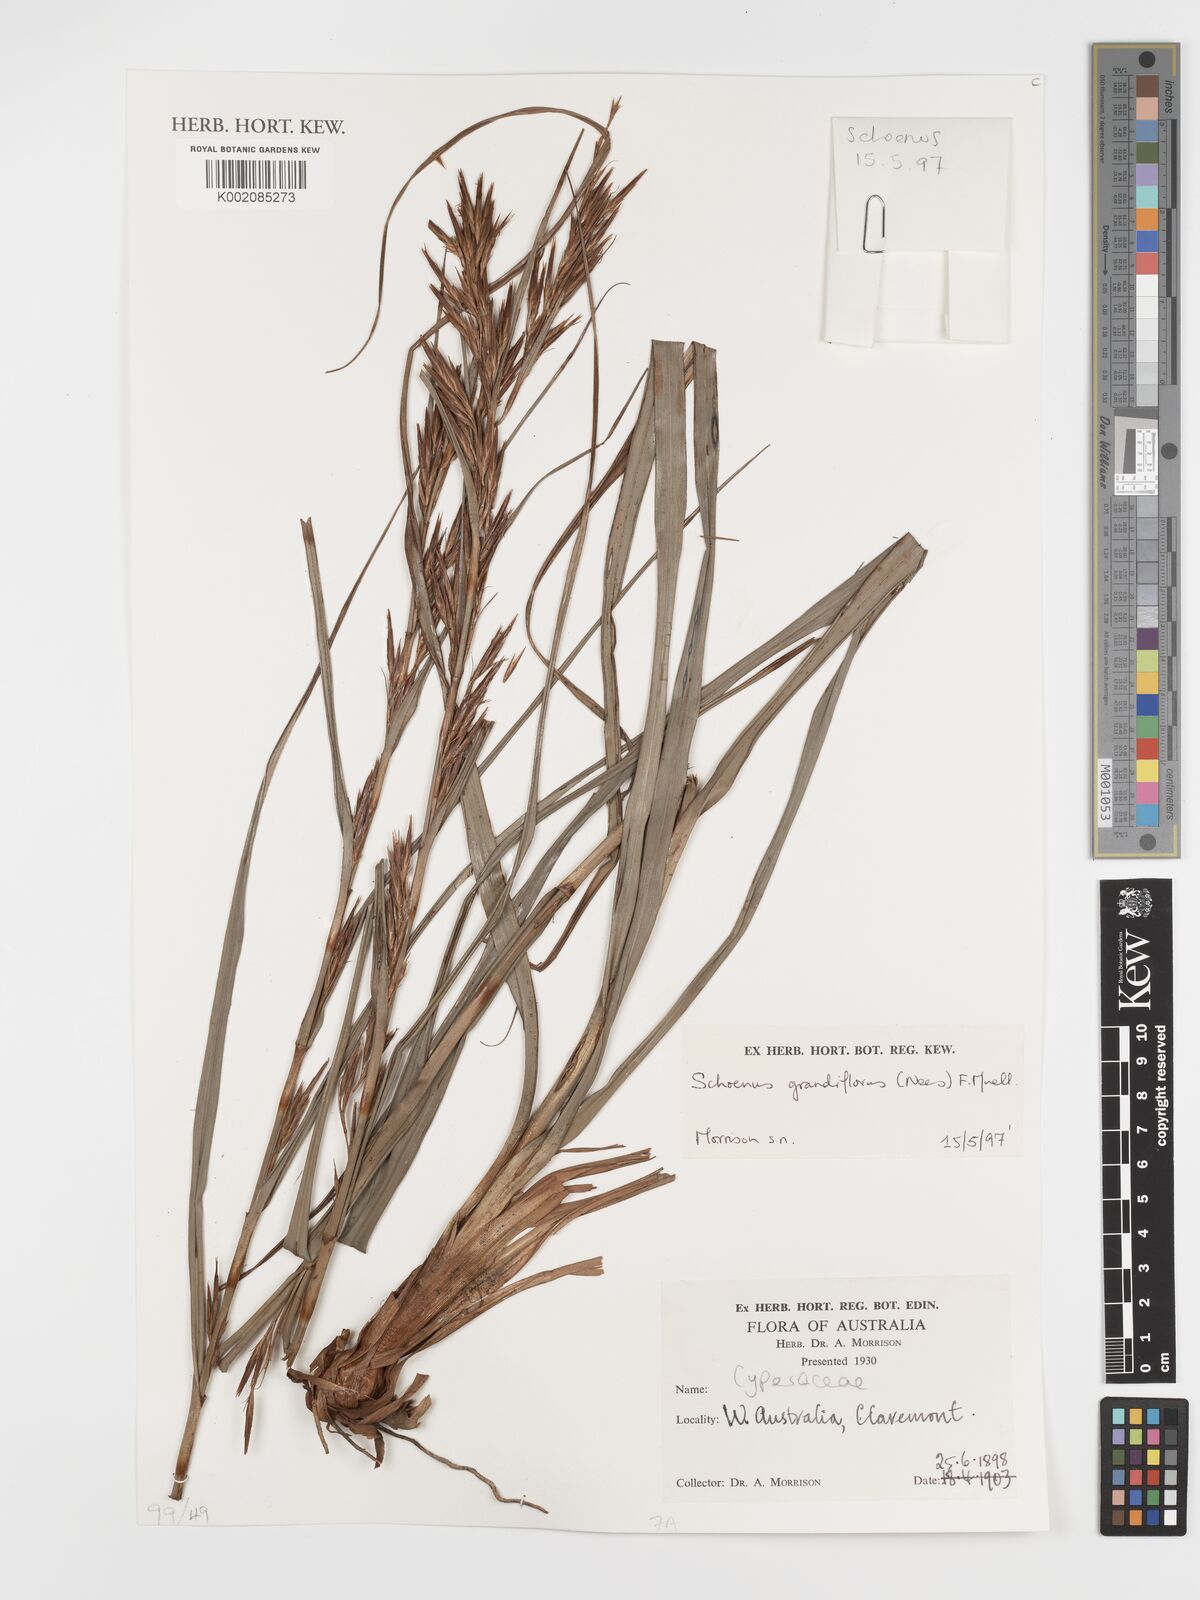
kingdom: Plantae
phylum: Tracheophyta
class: Liliopsida
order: Poales
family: Cyperaceae
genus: Schoenus
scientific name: Schoenus grandiflorus
